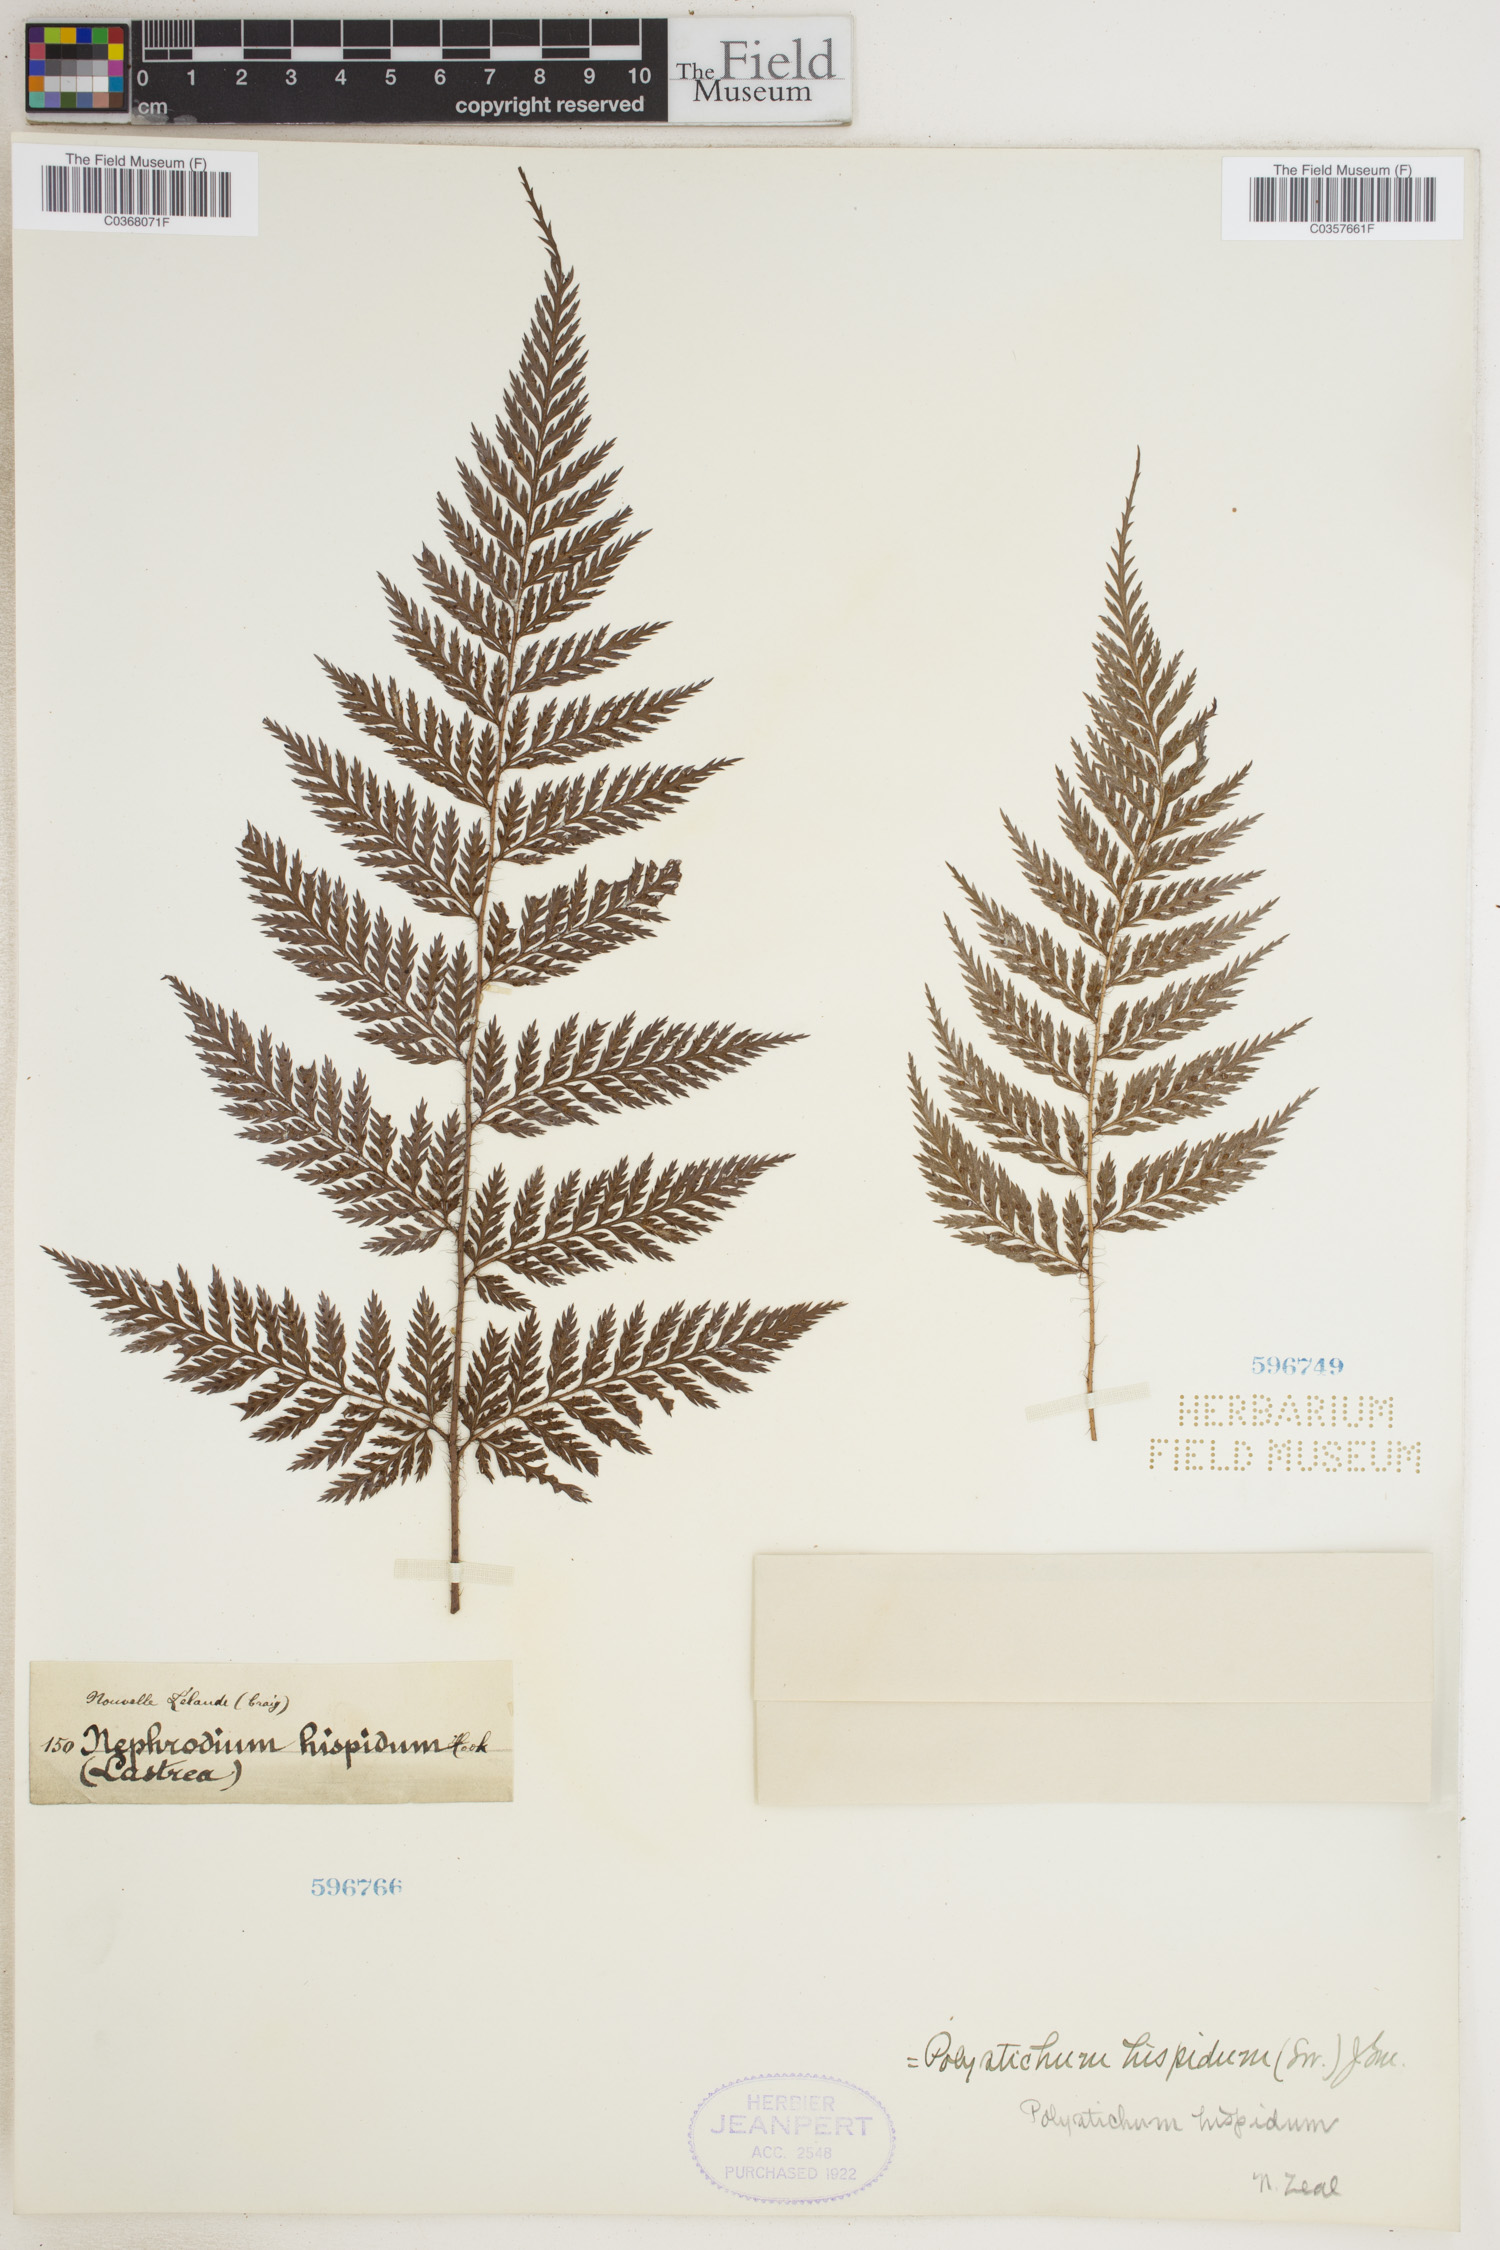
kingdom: Plantae
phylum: Tracheophyta
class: Polypodiopsida
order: Polypodiales
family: Dryopteridaceae
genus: Lastreopsis
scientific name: Lastreopsis hispida
